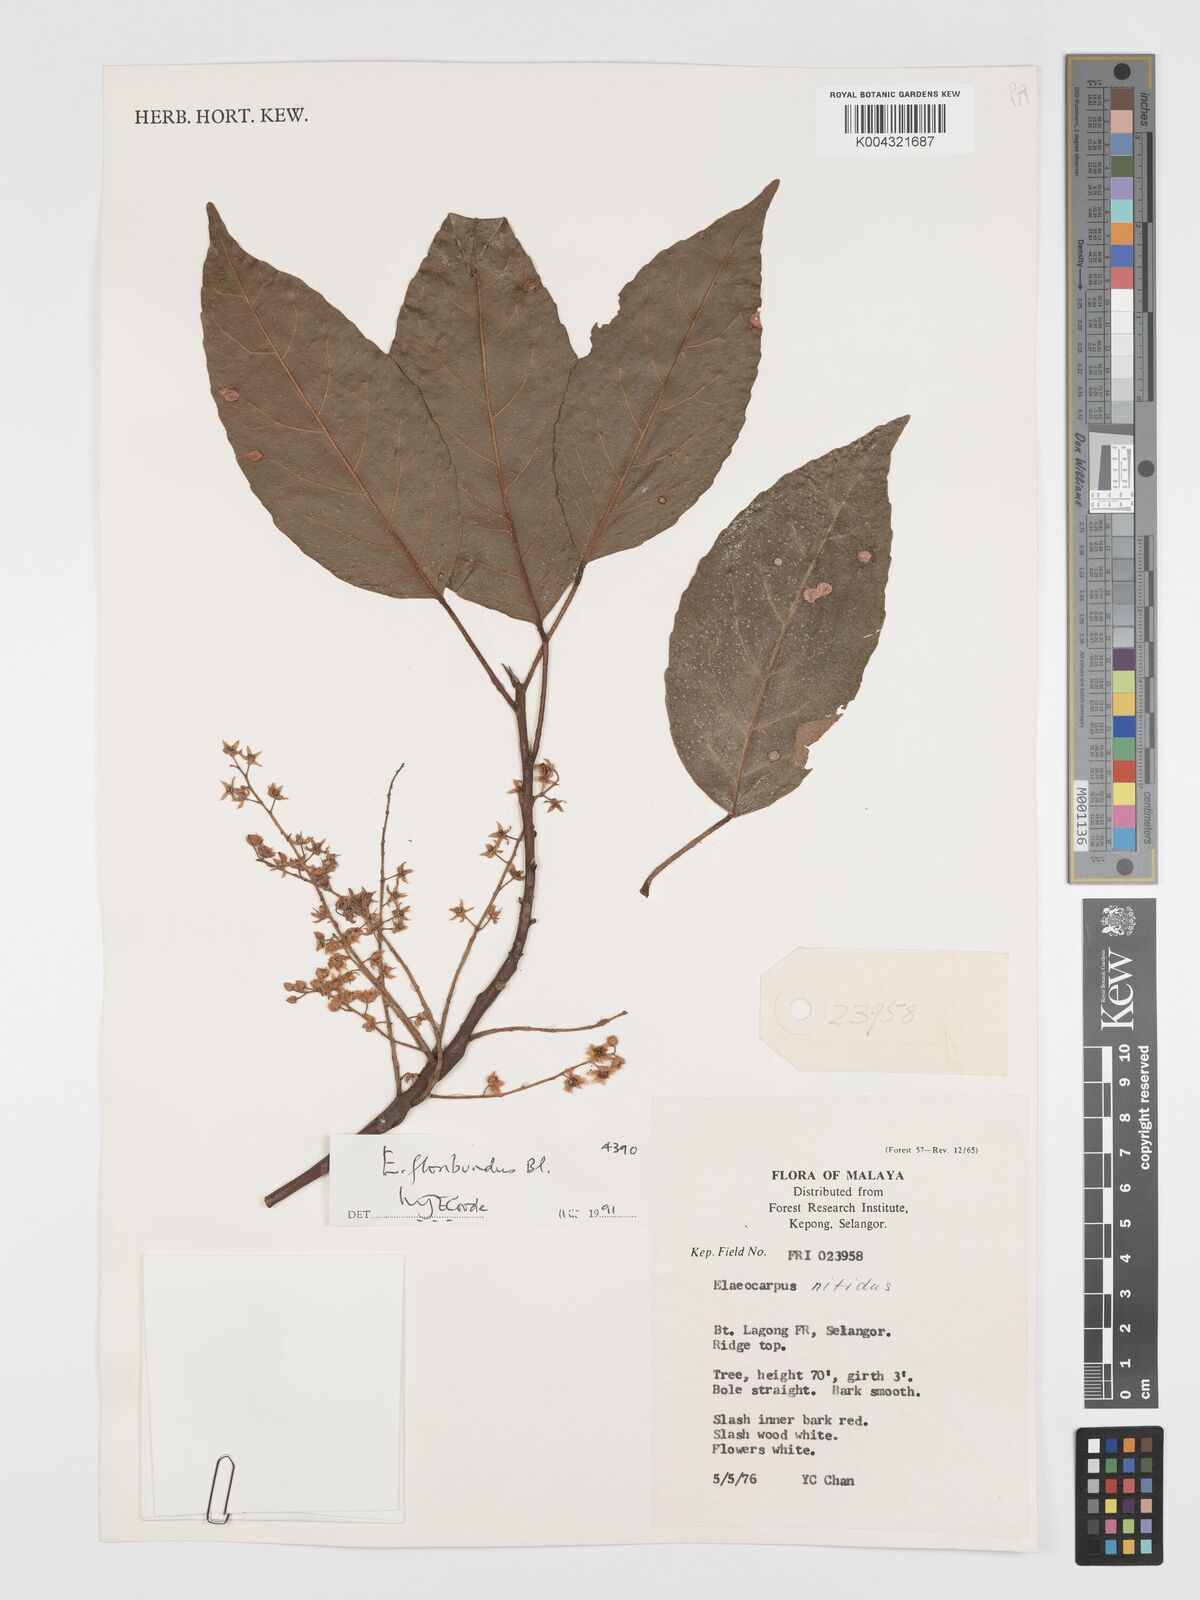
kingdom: Plantae
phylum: Tracheophyta
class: Magnoliopsida
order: Oxalidales
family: Elaeocarpaceae
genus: Elaeocarpus
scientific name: Elaeocarpus floribundus
